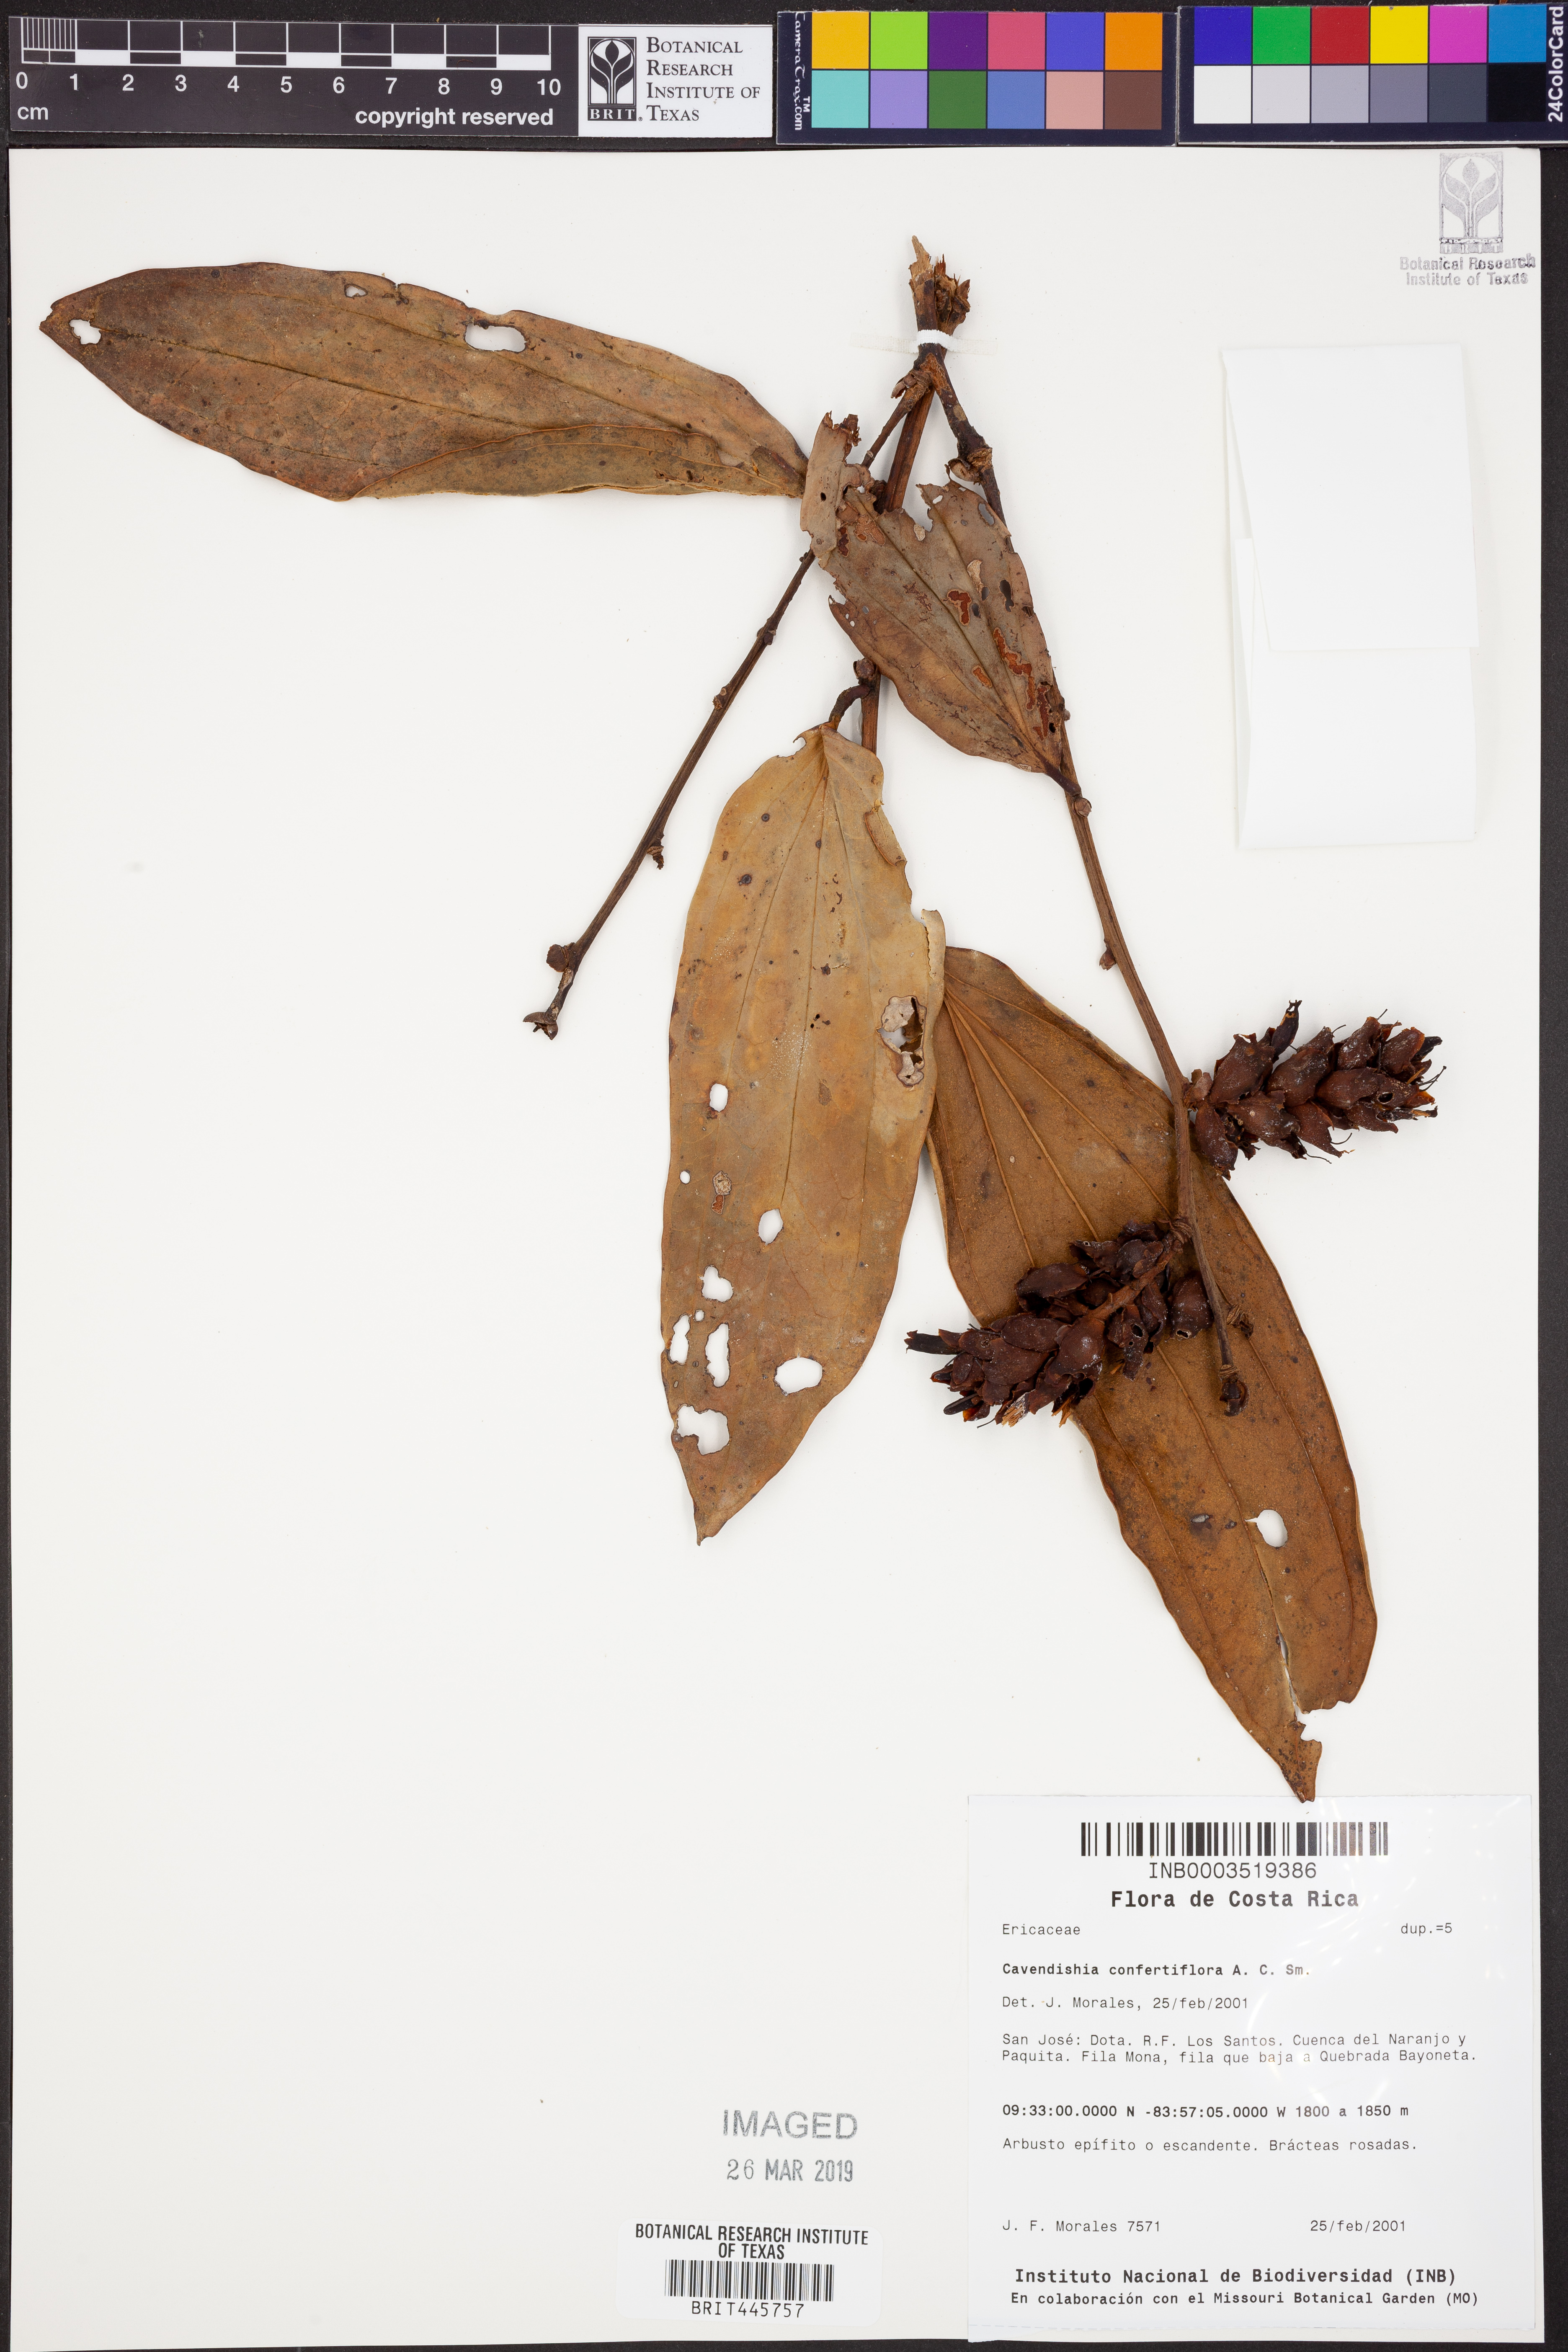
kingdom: Plantae
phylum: Tracheophyta
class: Magnoliopsida
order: Ericales
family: Ericaceae
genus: Cavendishia
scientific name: Cavendishia confertiflora
